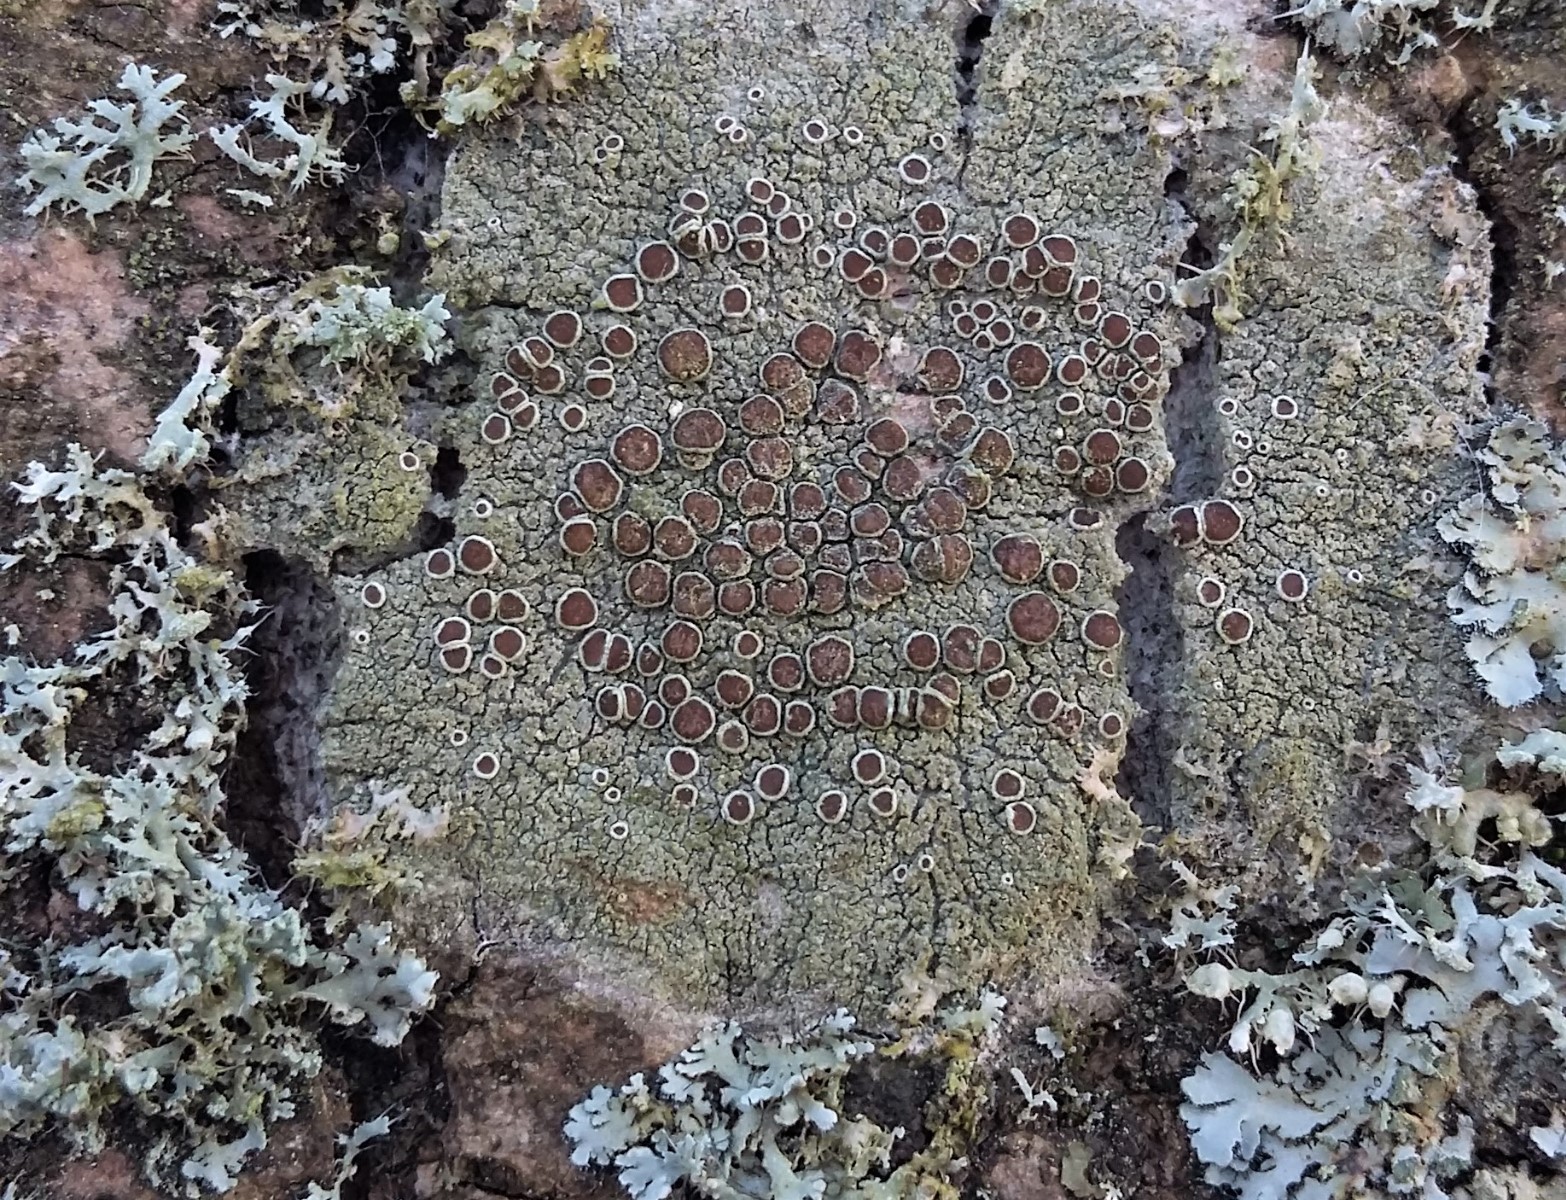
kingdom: Fungi
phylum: Ascomycota
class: Lecanoromycetes
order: Lecanorales
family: Lecanoraceae
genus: Lecanora
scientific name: Lecanora
